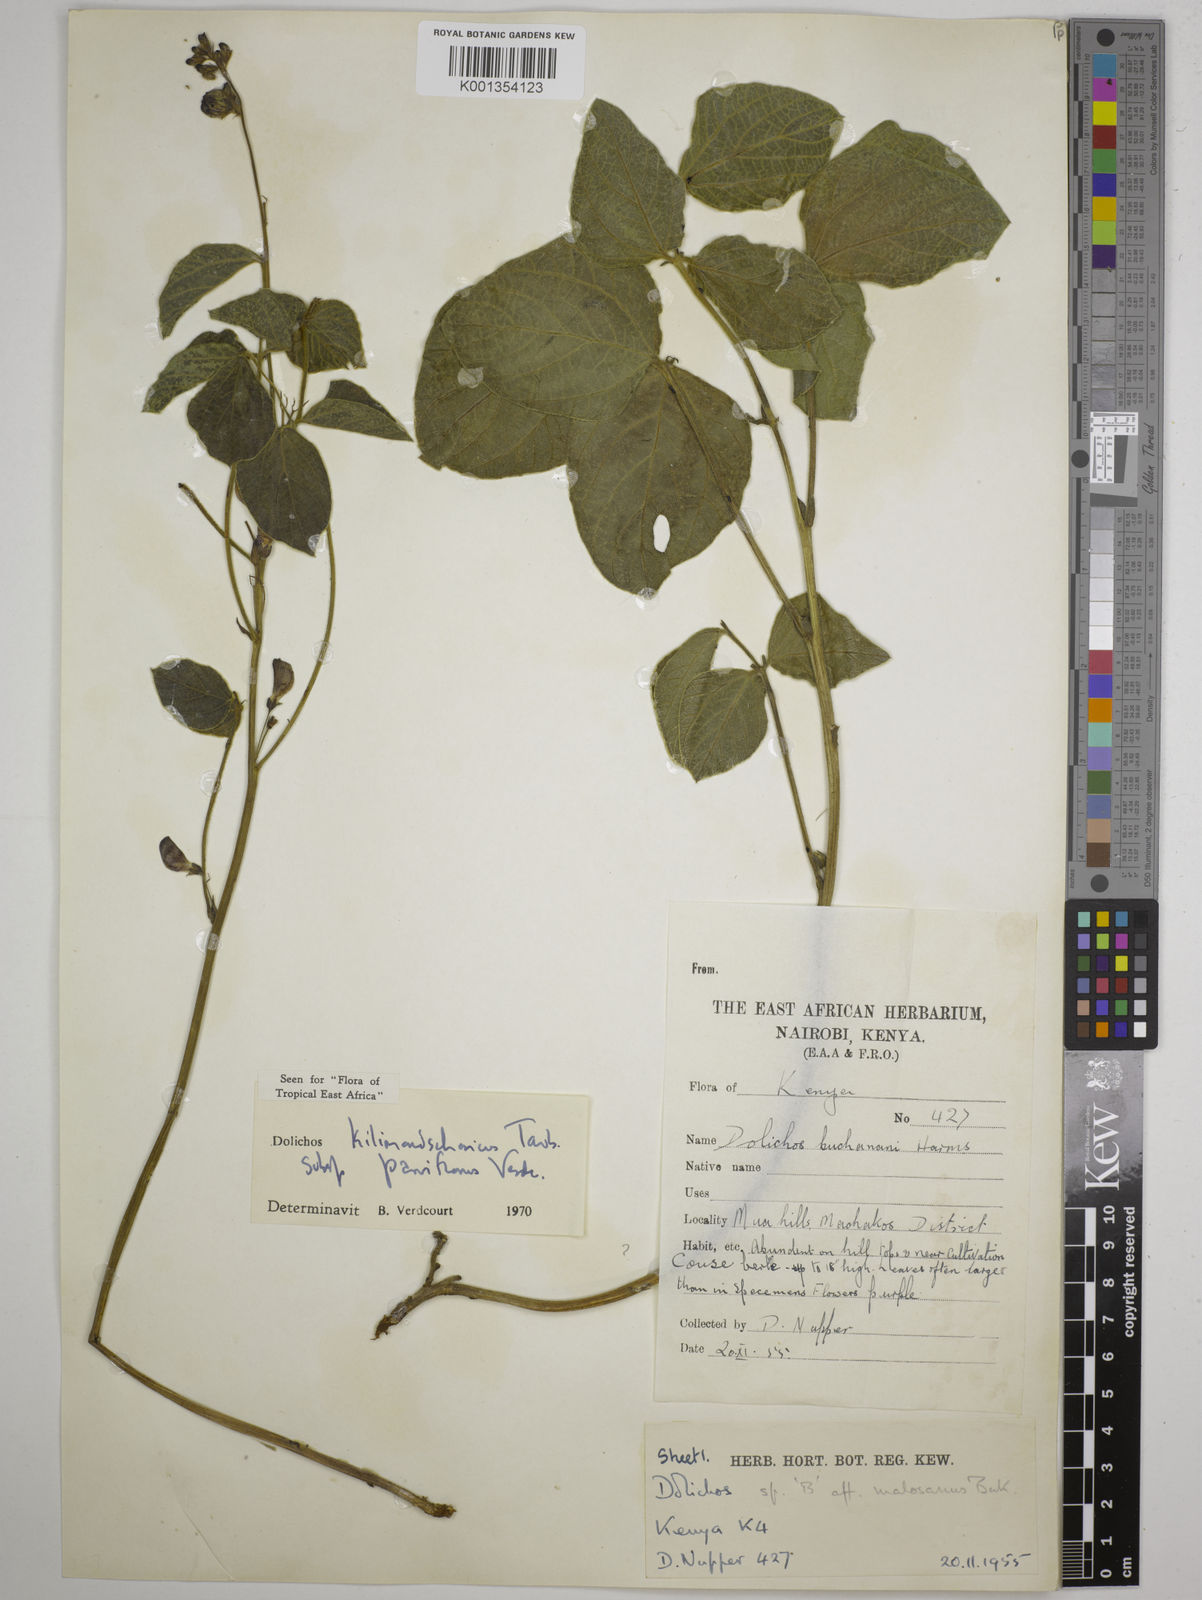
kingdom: Plantae
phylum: Tracheophyta
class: Magnoliopsida
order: Fabales
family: Fabaceae
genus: Dolichos
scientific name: Dolichos
